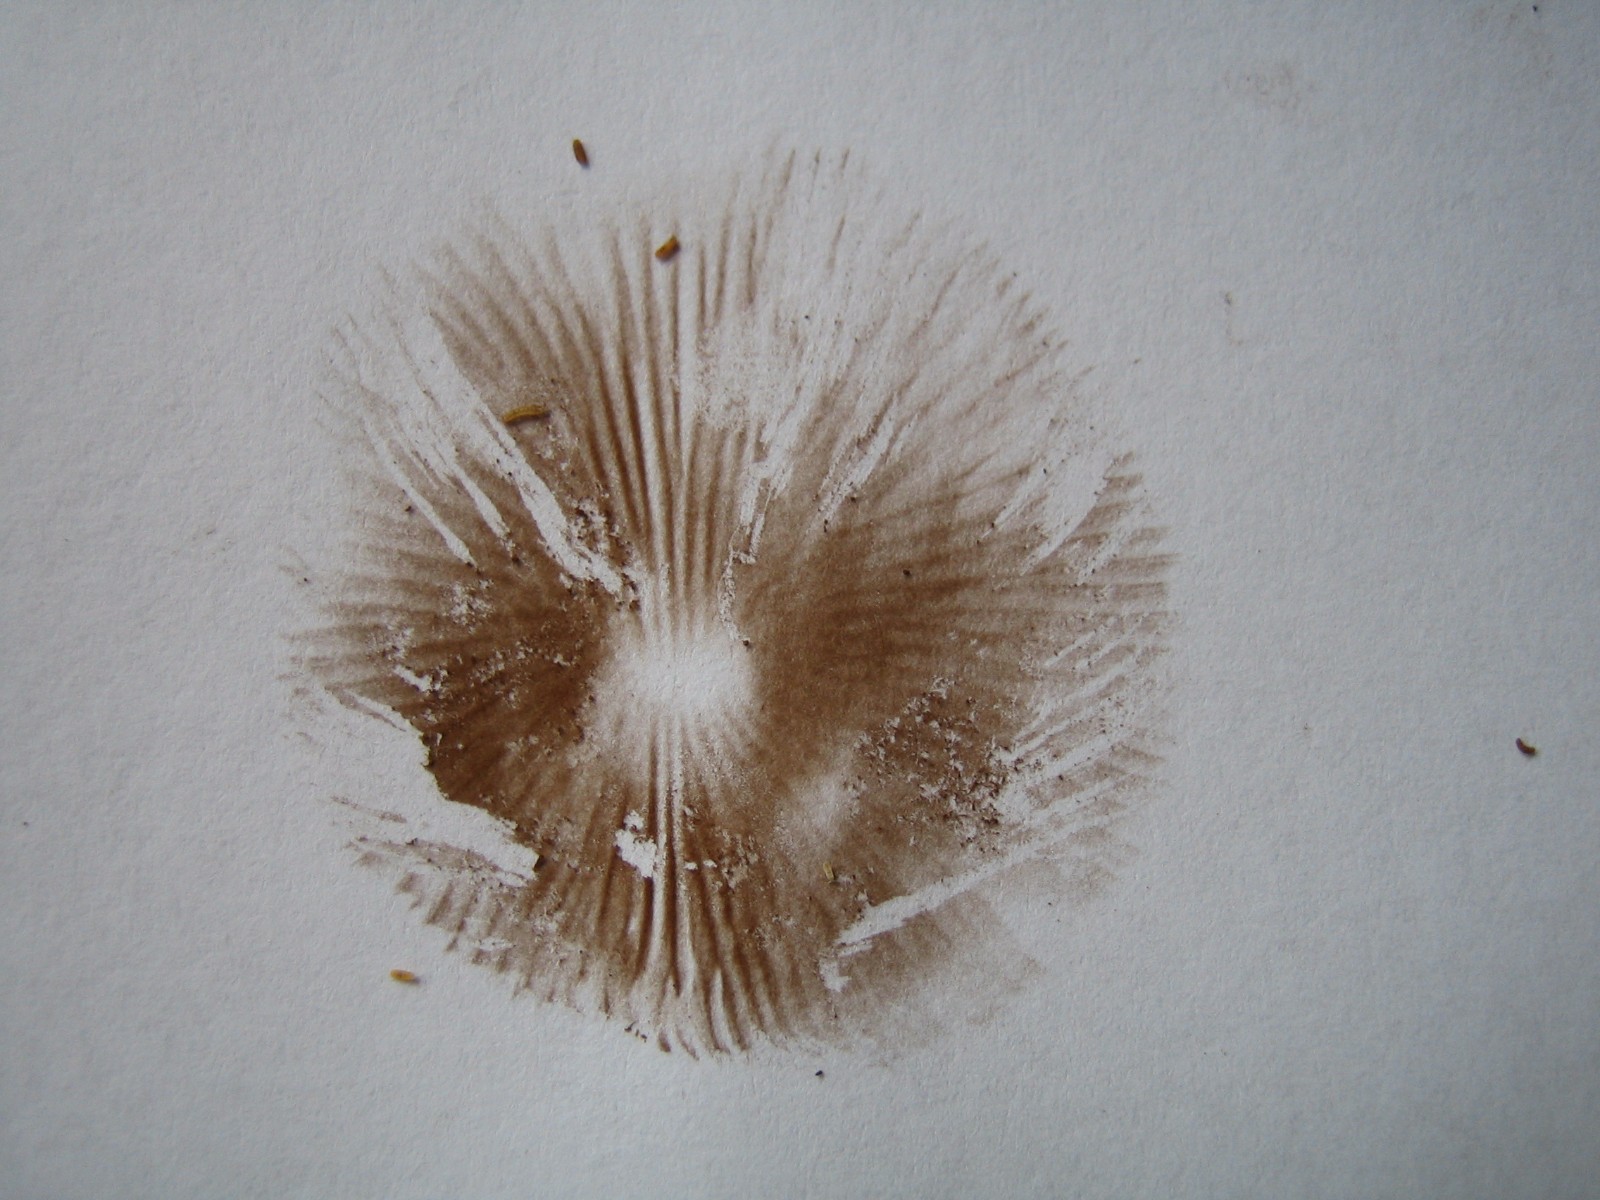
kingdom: Fungi
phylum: Basidiomycota
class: Agaricomycetes
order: Agaricales
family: Inocybaceae
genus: Inocybe
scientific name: Inocybe
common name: trævlhat
